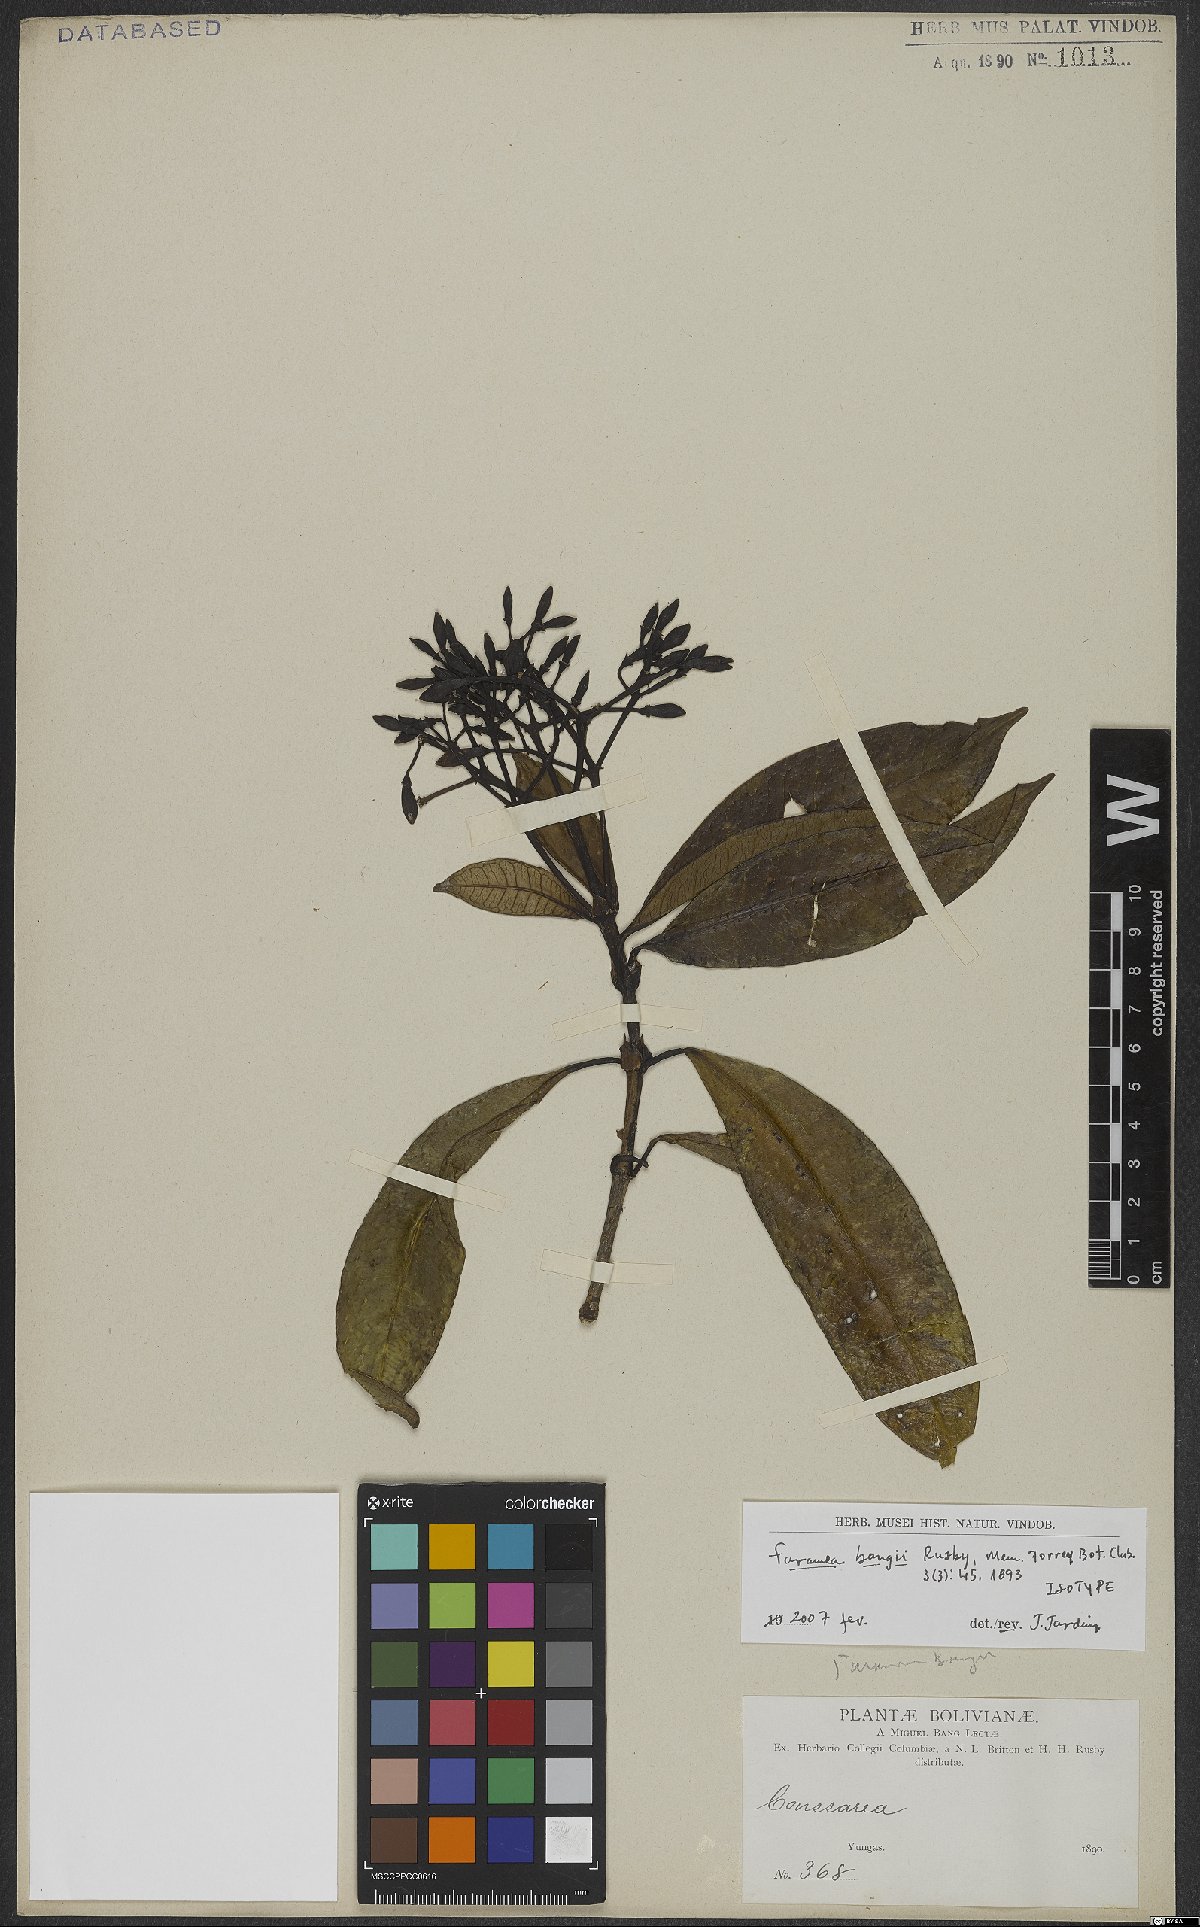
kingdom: Plantae
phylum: Tracheophyta
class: Magnoliopsida
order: Gentianales
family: Rubiaceae
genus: Faramea
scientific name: Faramea bangii
